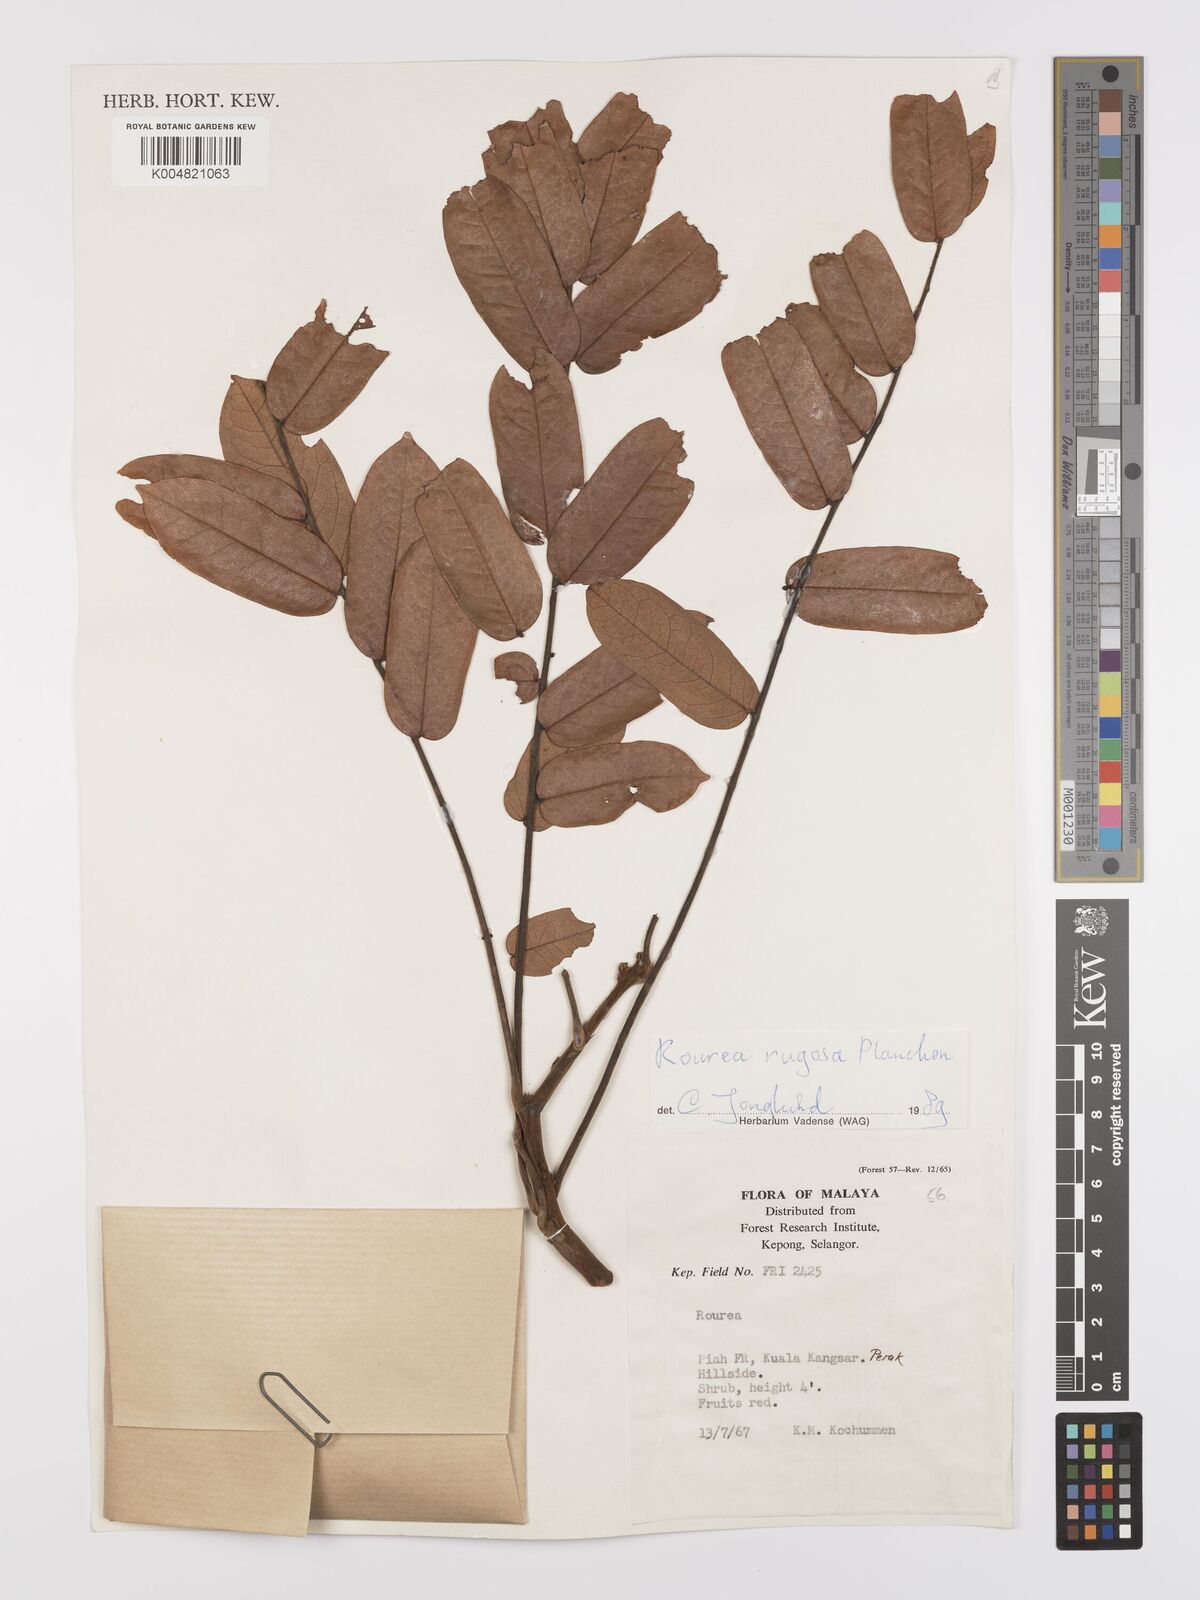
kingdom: Plantae
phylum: Tracheophyta
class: Magnoliopsida
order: Oxalidales
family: Connaraceae
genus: Rourea
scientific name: Rourea rugosa
